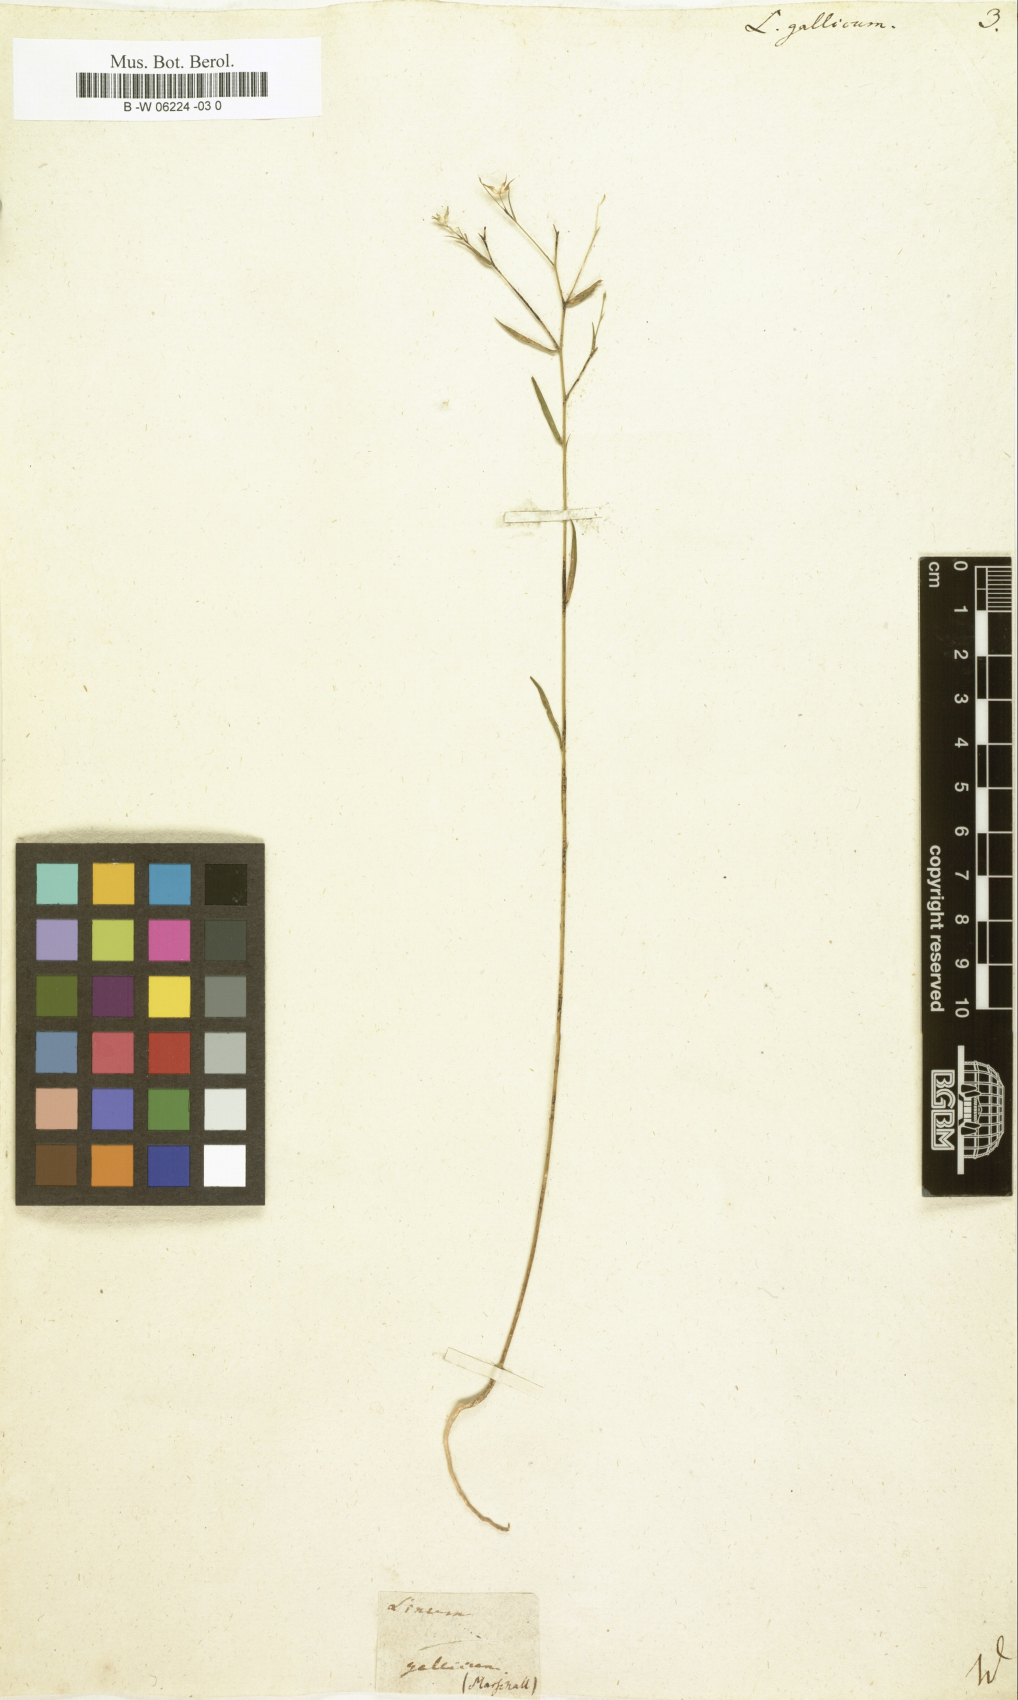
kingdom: Plantae
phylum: Tracheophyta
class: Magnoliopsida
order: Malpighiales
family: Linaceae
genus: Linum
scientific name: Linum
